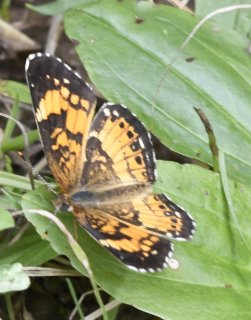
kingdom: Animalia
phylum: Arthropoda
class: Insecta
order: Lepidoptera
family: Nymphalidae
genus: Chlosyne
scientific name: Chlosyne nycteis
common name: Silvery Checkerspot
